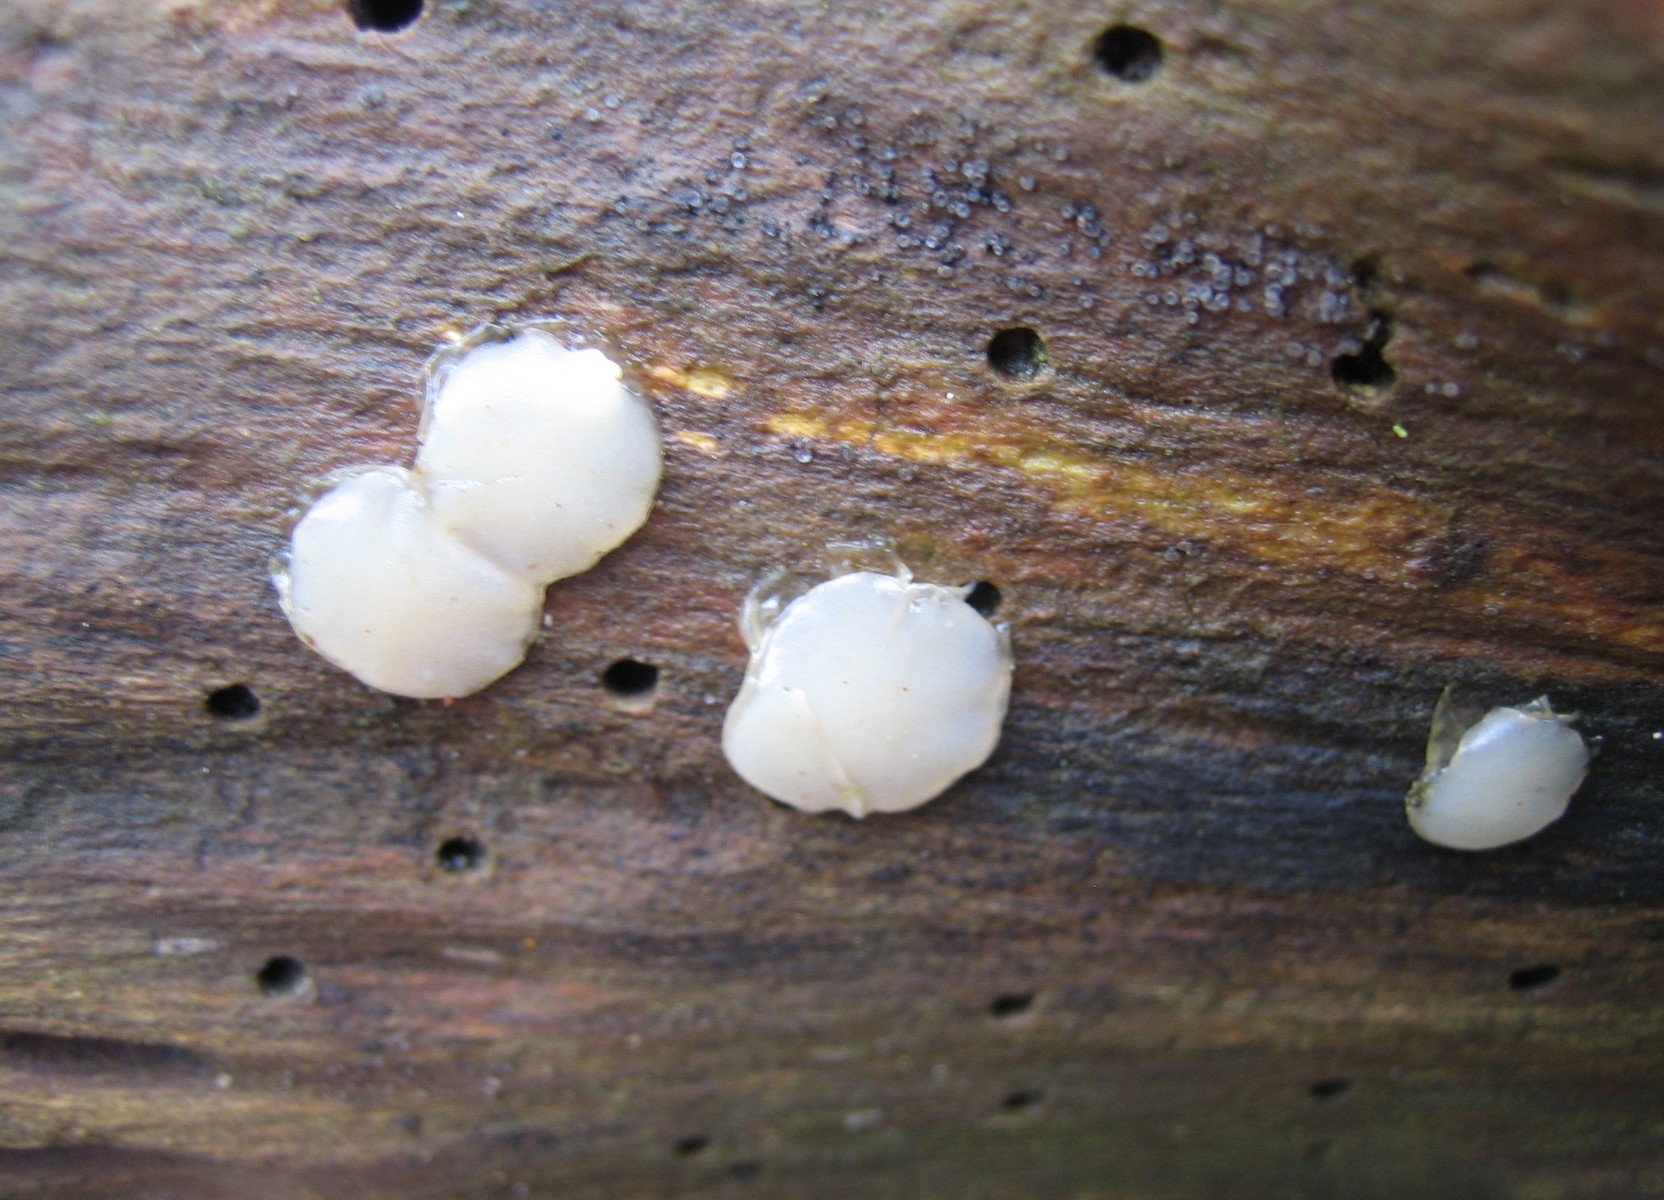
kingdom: Fungi
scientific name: Fungi
